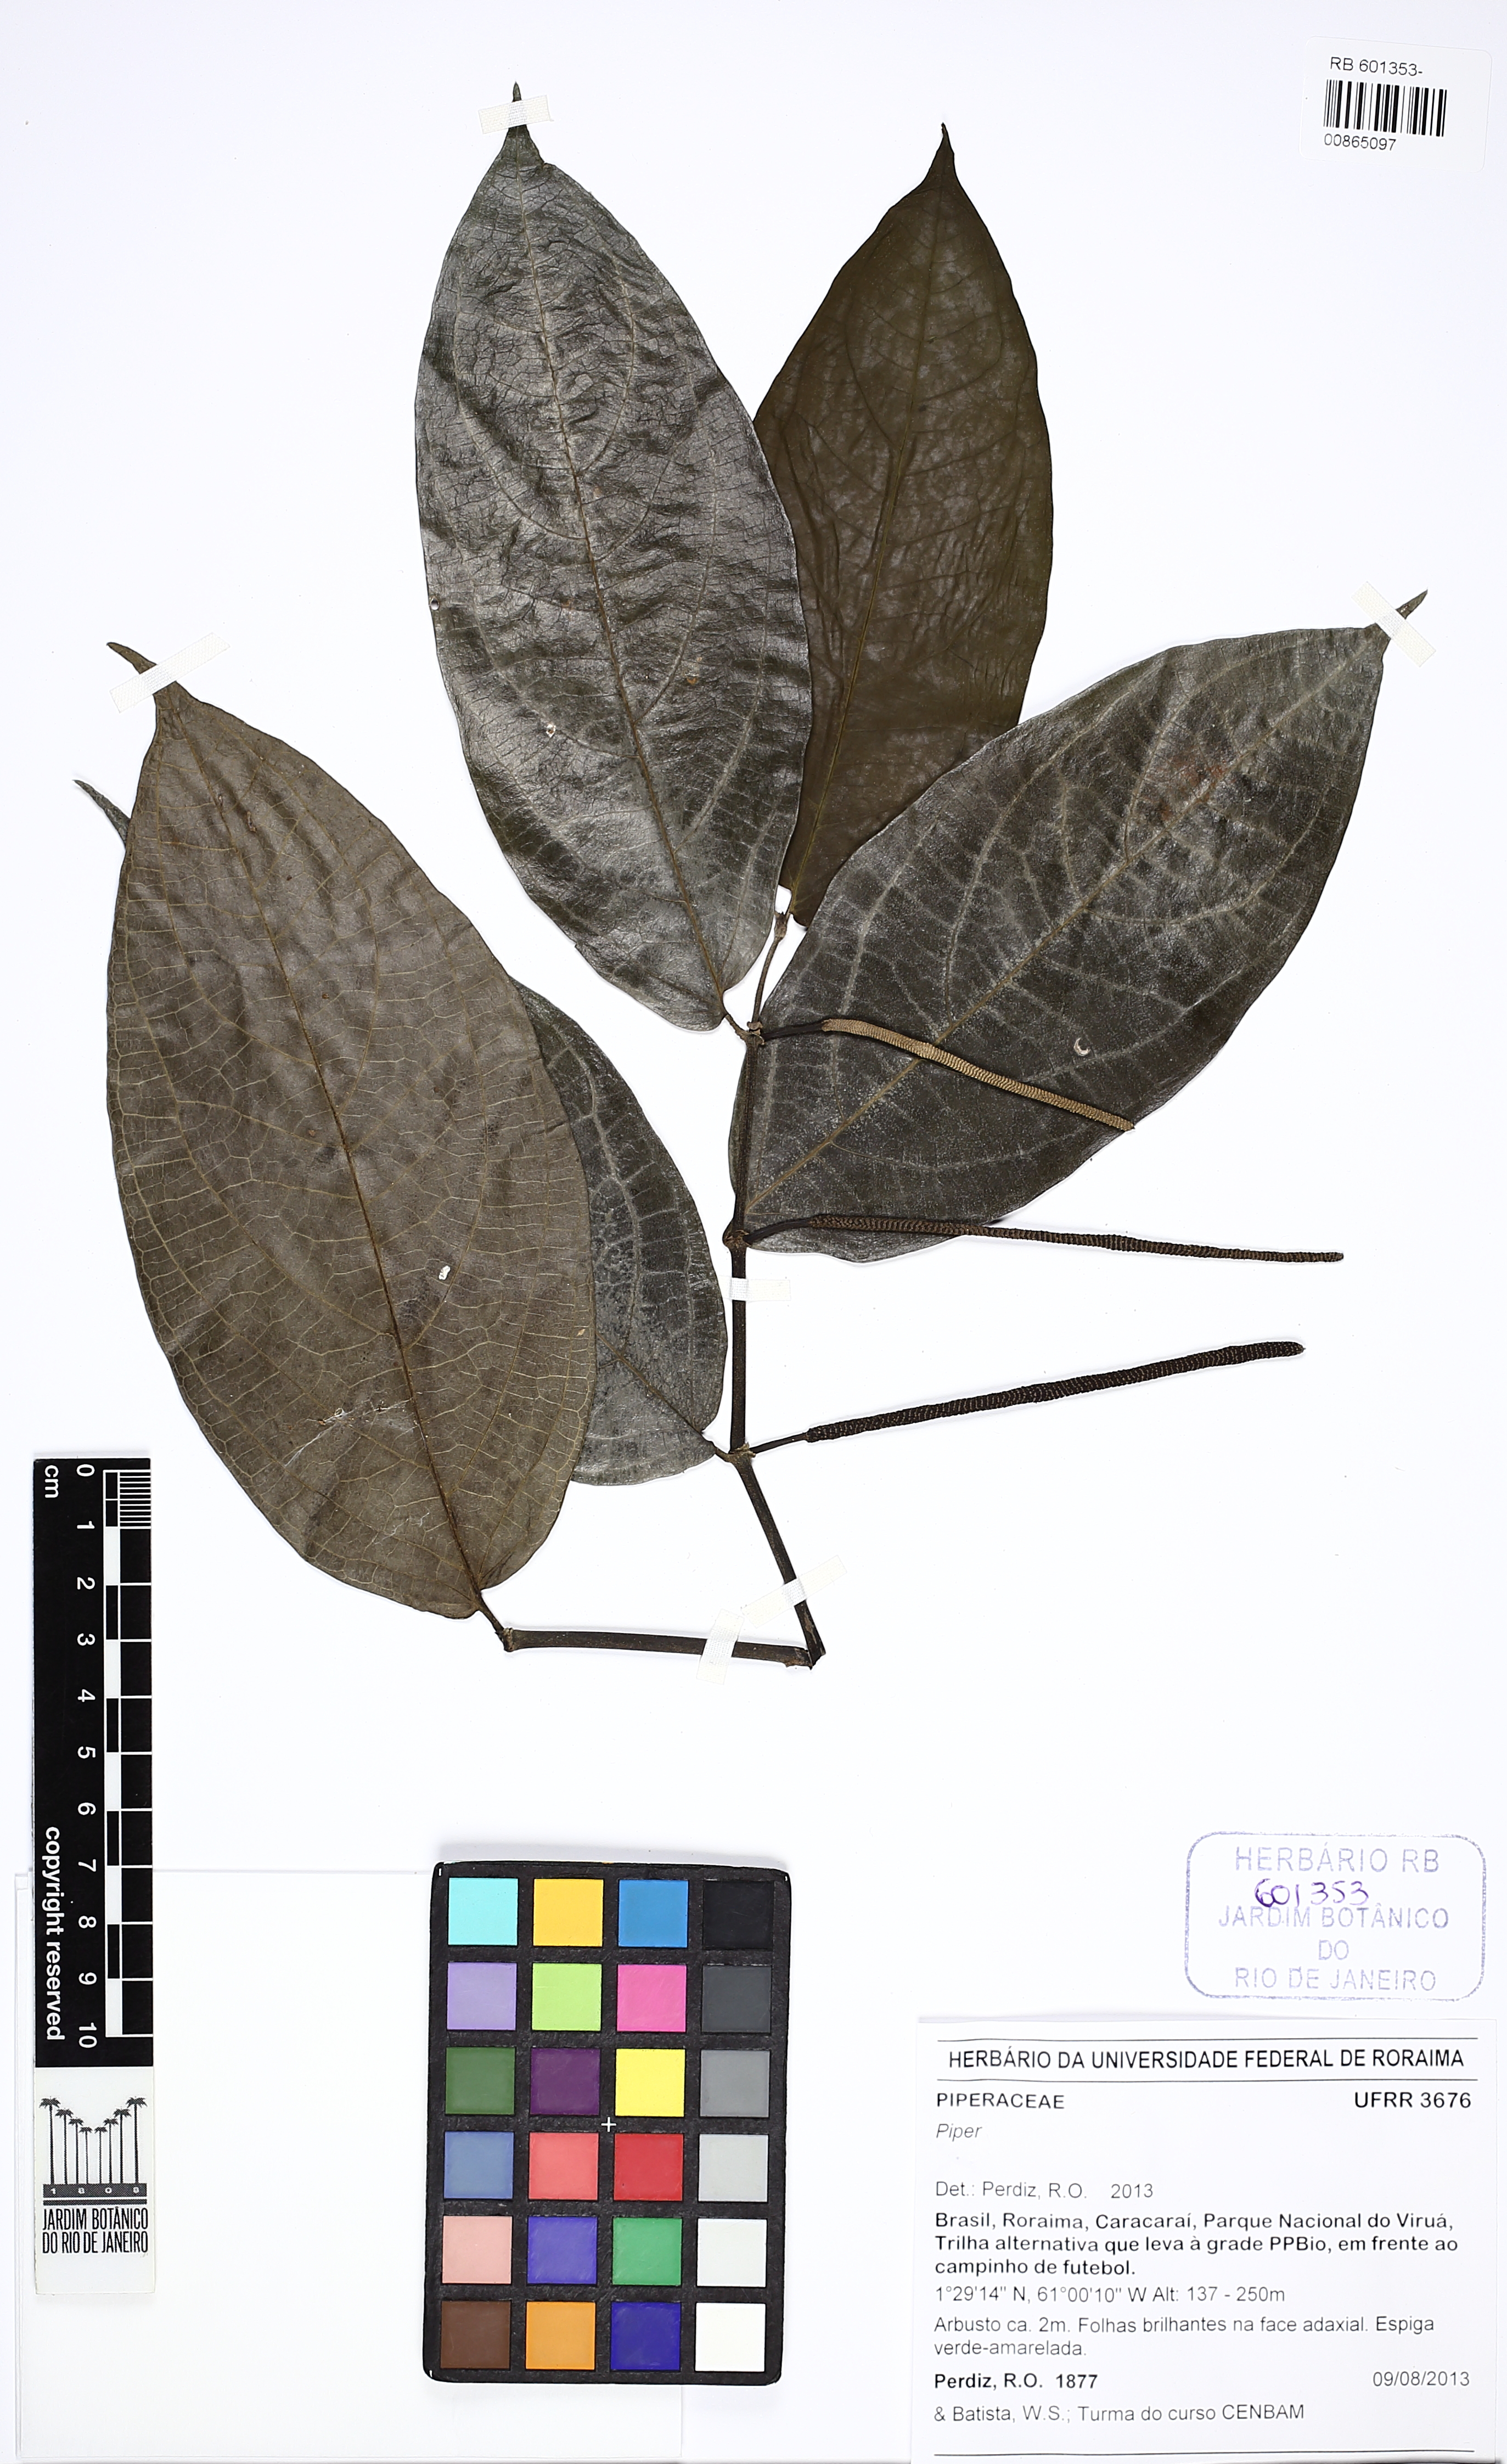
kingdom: Plantae
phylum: Tracheophyta
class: Magnoliopsida
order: Piperales
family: Piperaceae
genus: Piper
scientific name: Piper hostmannianum
